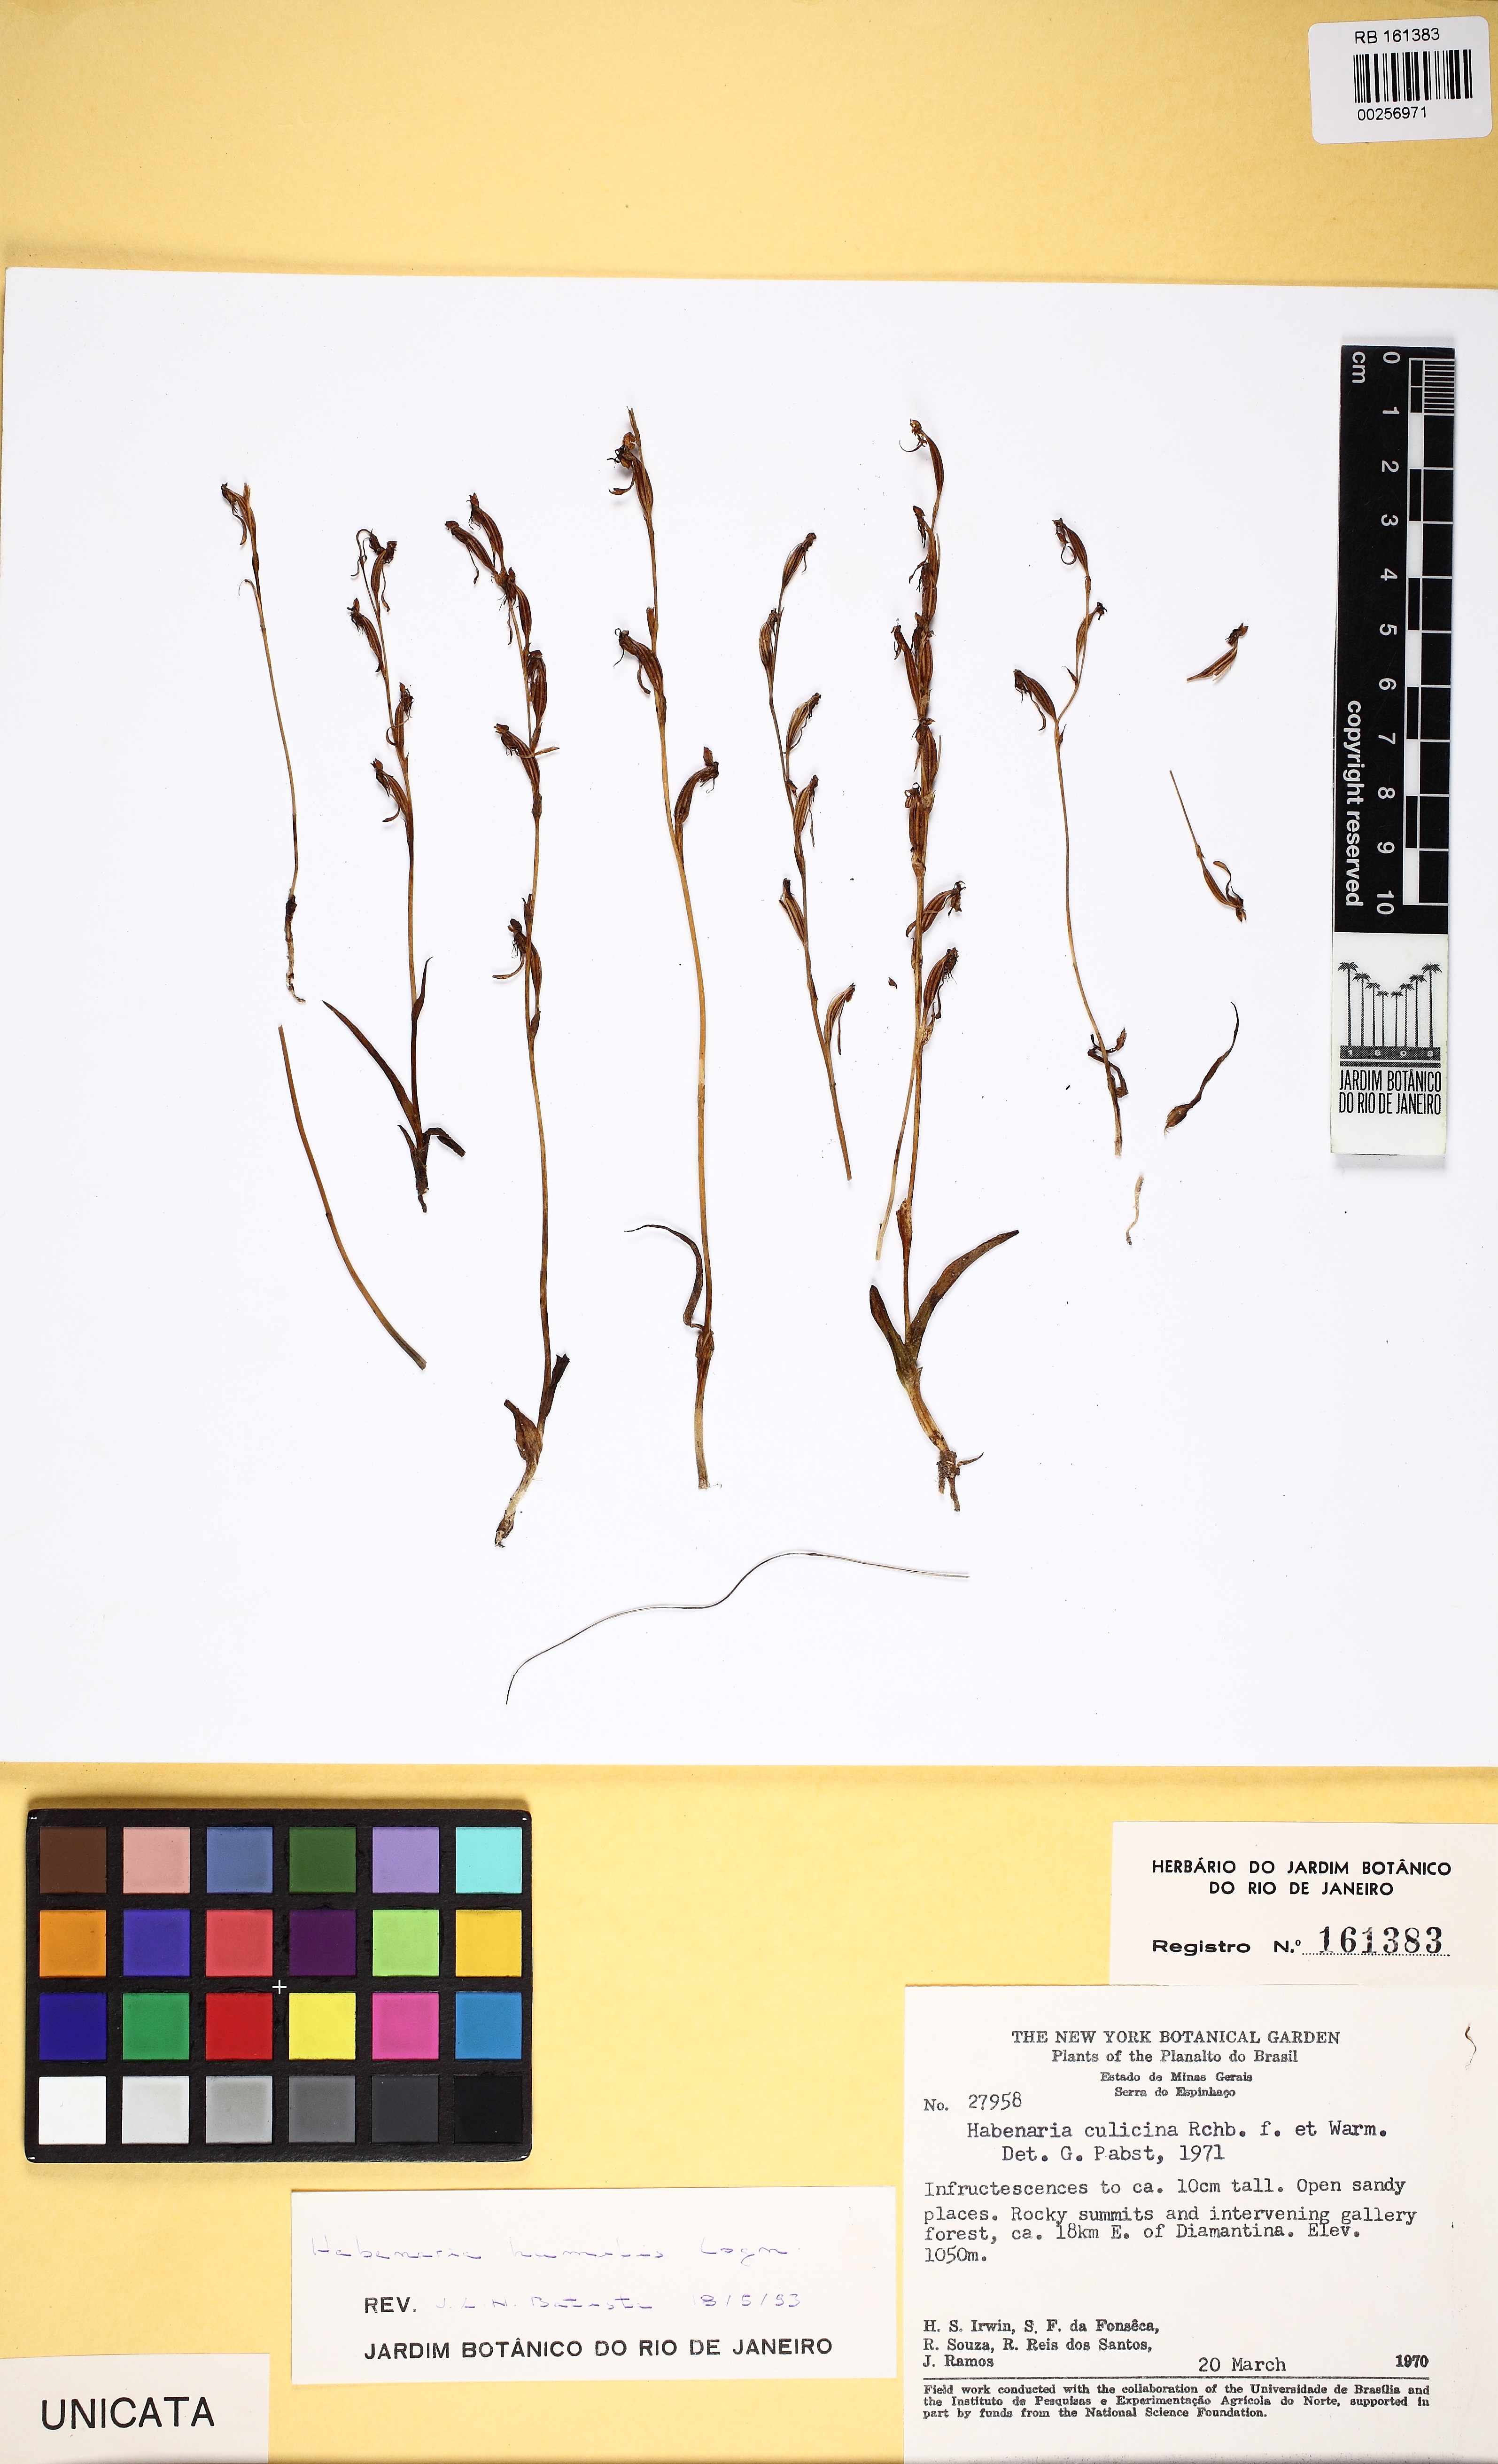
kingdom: Plantae
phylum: Tracheophyta
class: Liliopsida
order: Asparagales
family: Orchidaceae
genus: Habenaria
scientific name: Habenaria campylogyna
